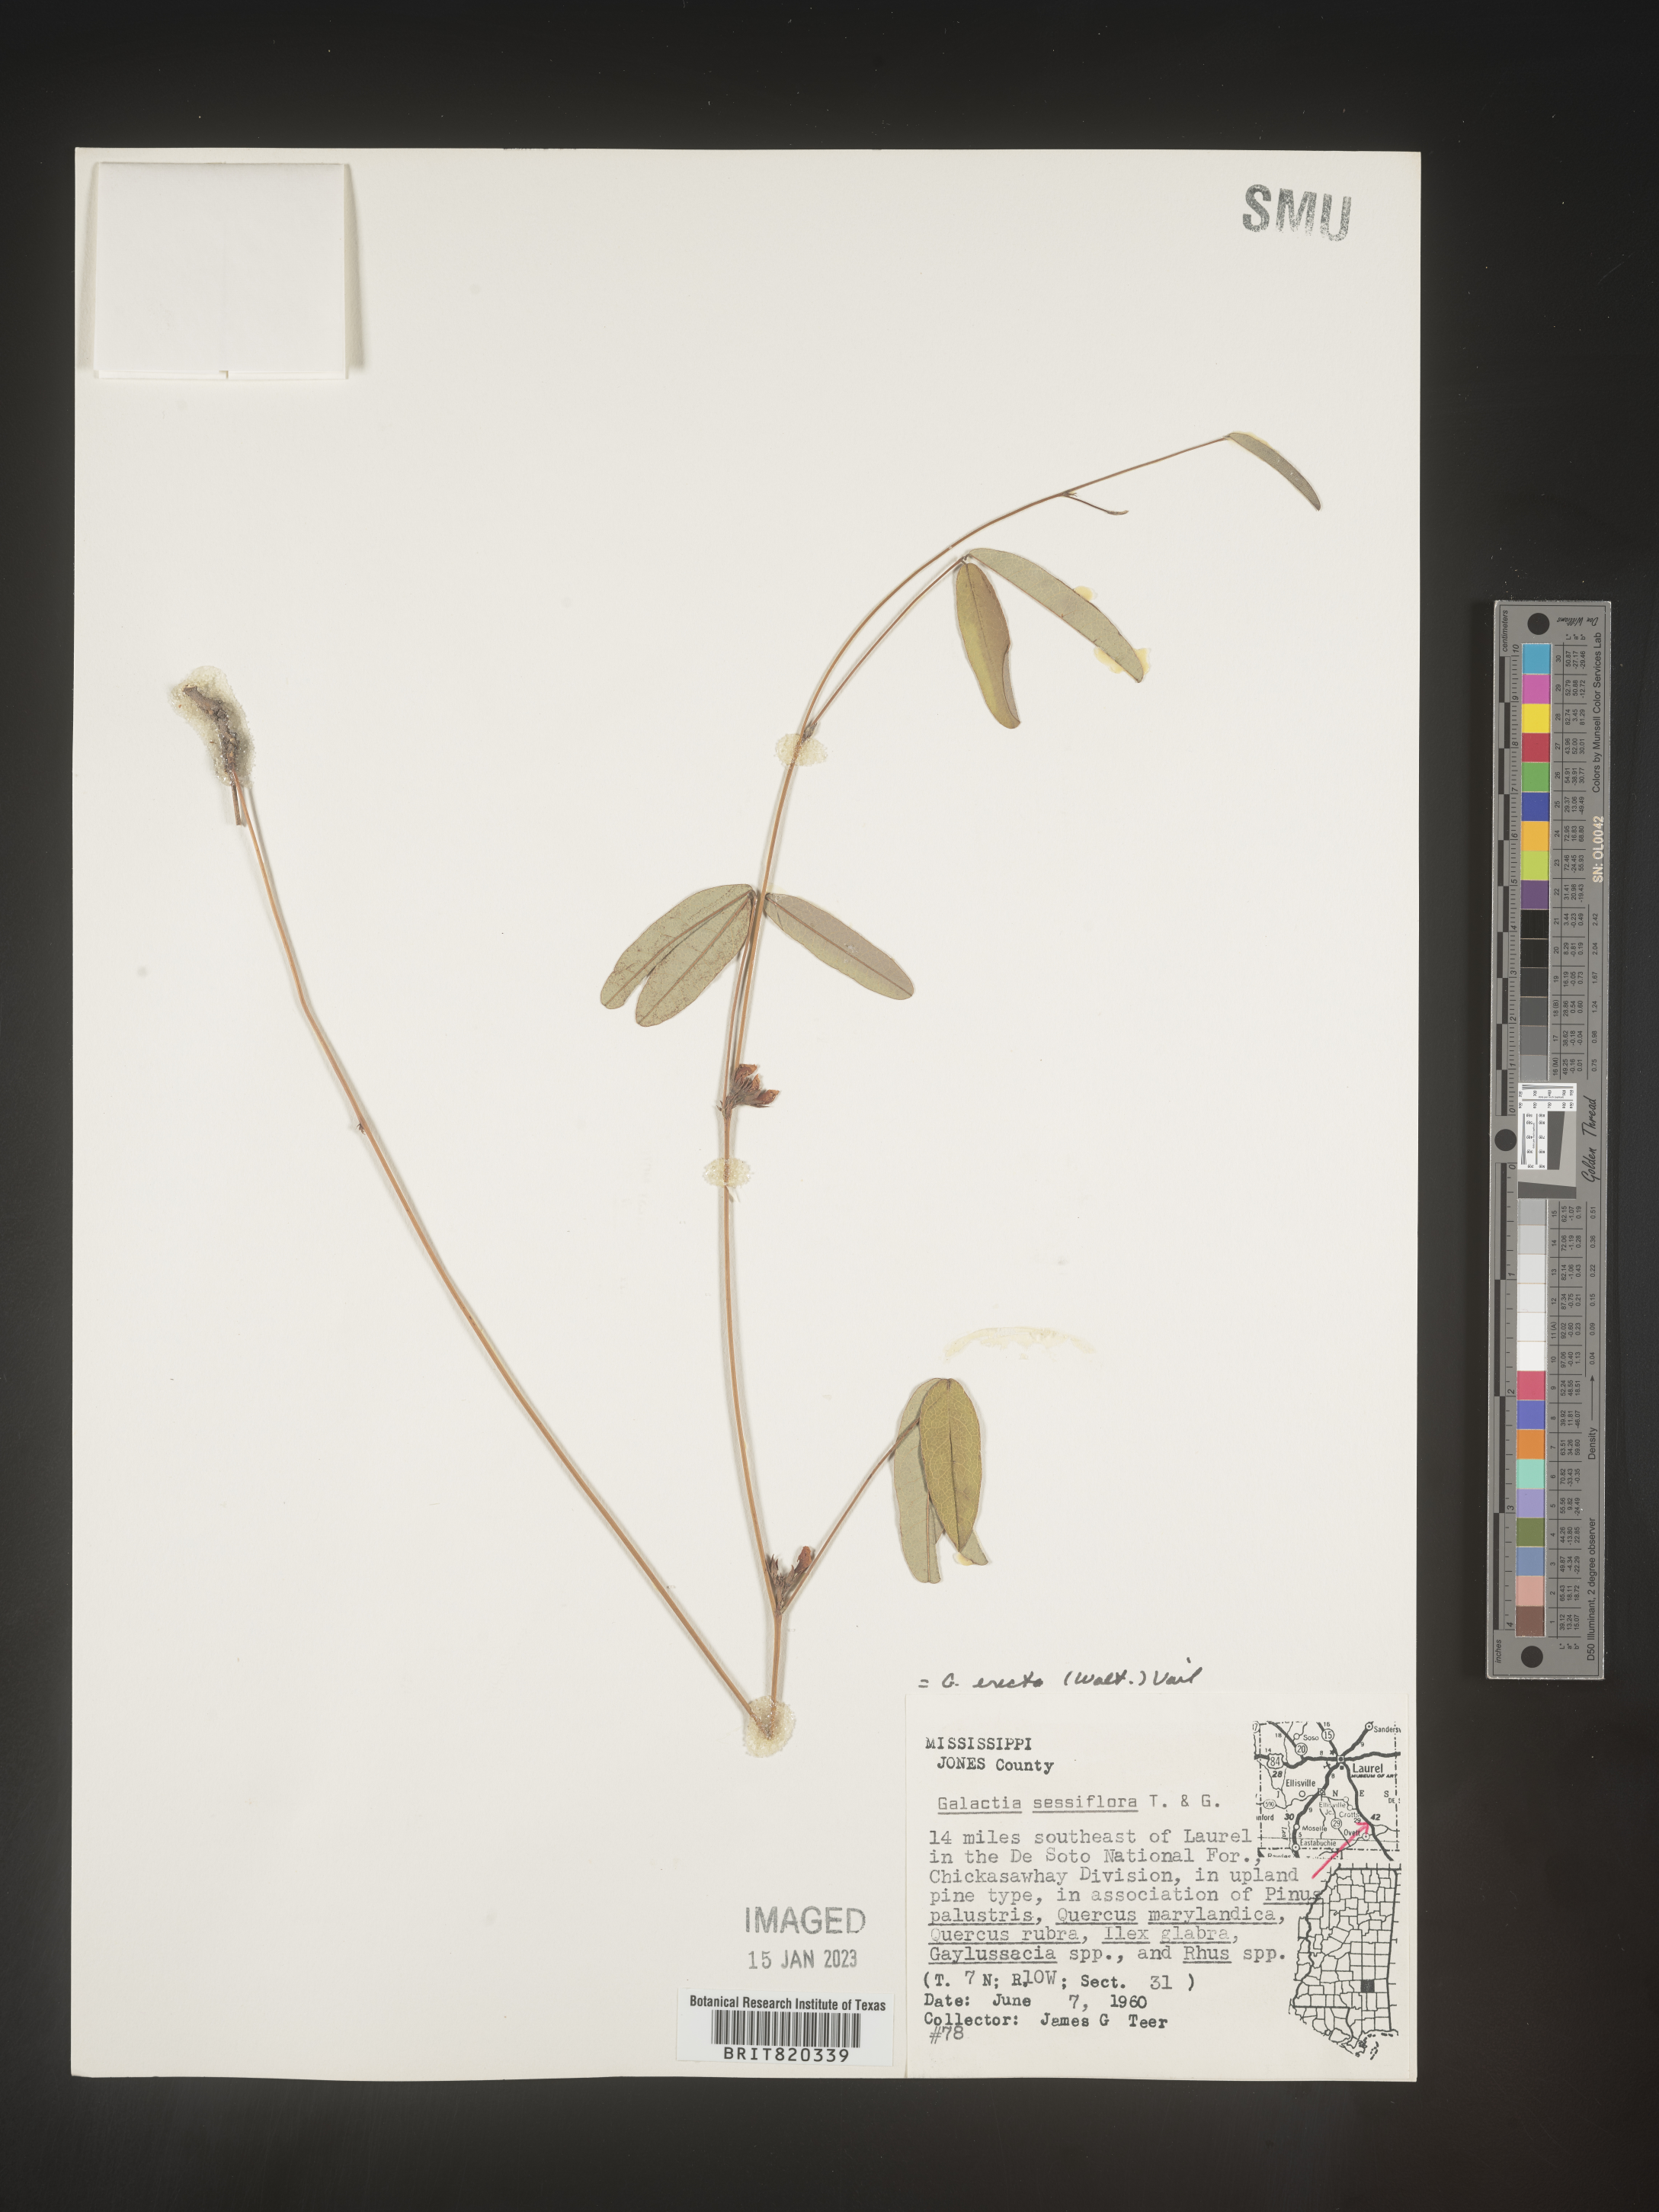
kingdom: Plantae
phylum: Tracheophyta
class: Magnoliopsida
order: Fabales
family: Fabaceae
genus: Galactia
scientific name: Galactia erecta
